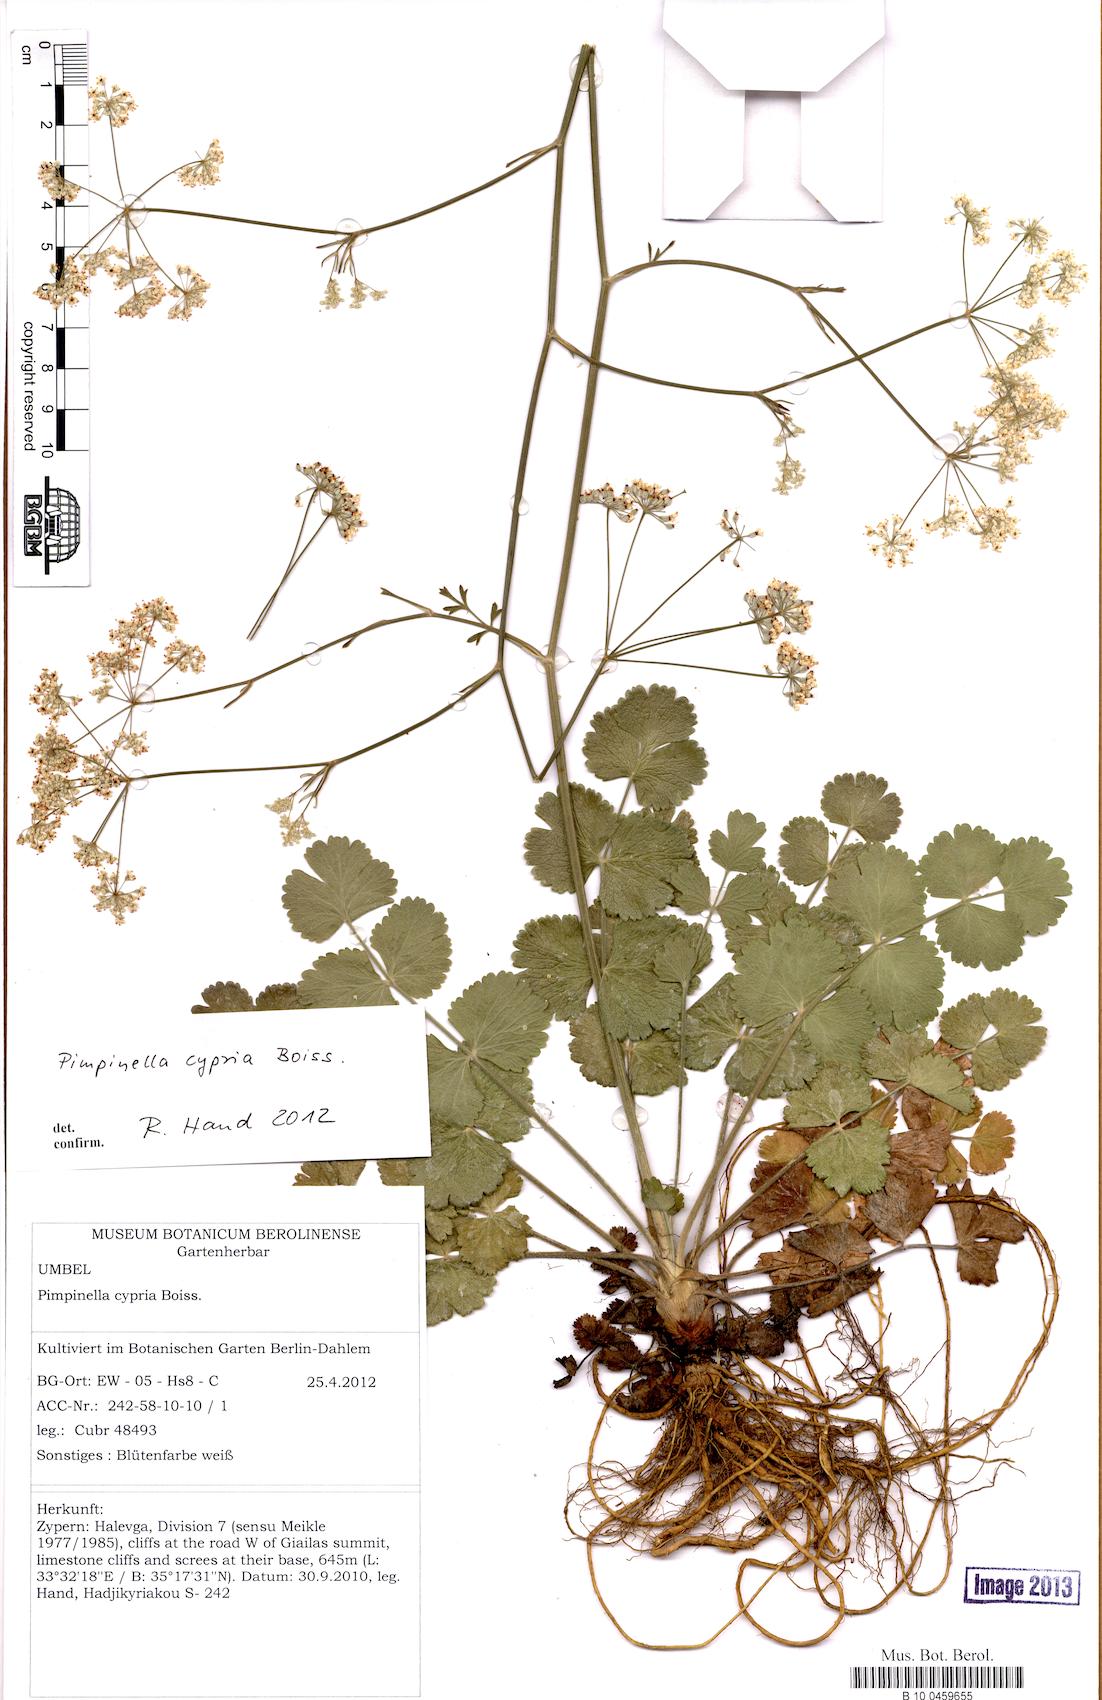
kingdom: Plantae
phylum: Tracheophyta
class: Magnoliopsida
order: Apiales
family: Apiaceae
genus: Pimpinella
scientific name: Pimpinella cypria
